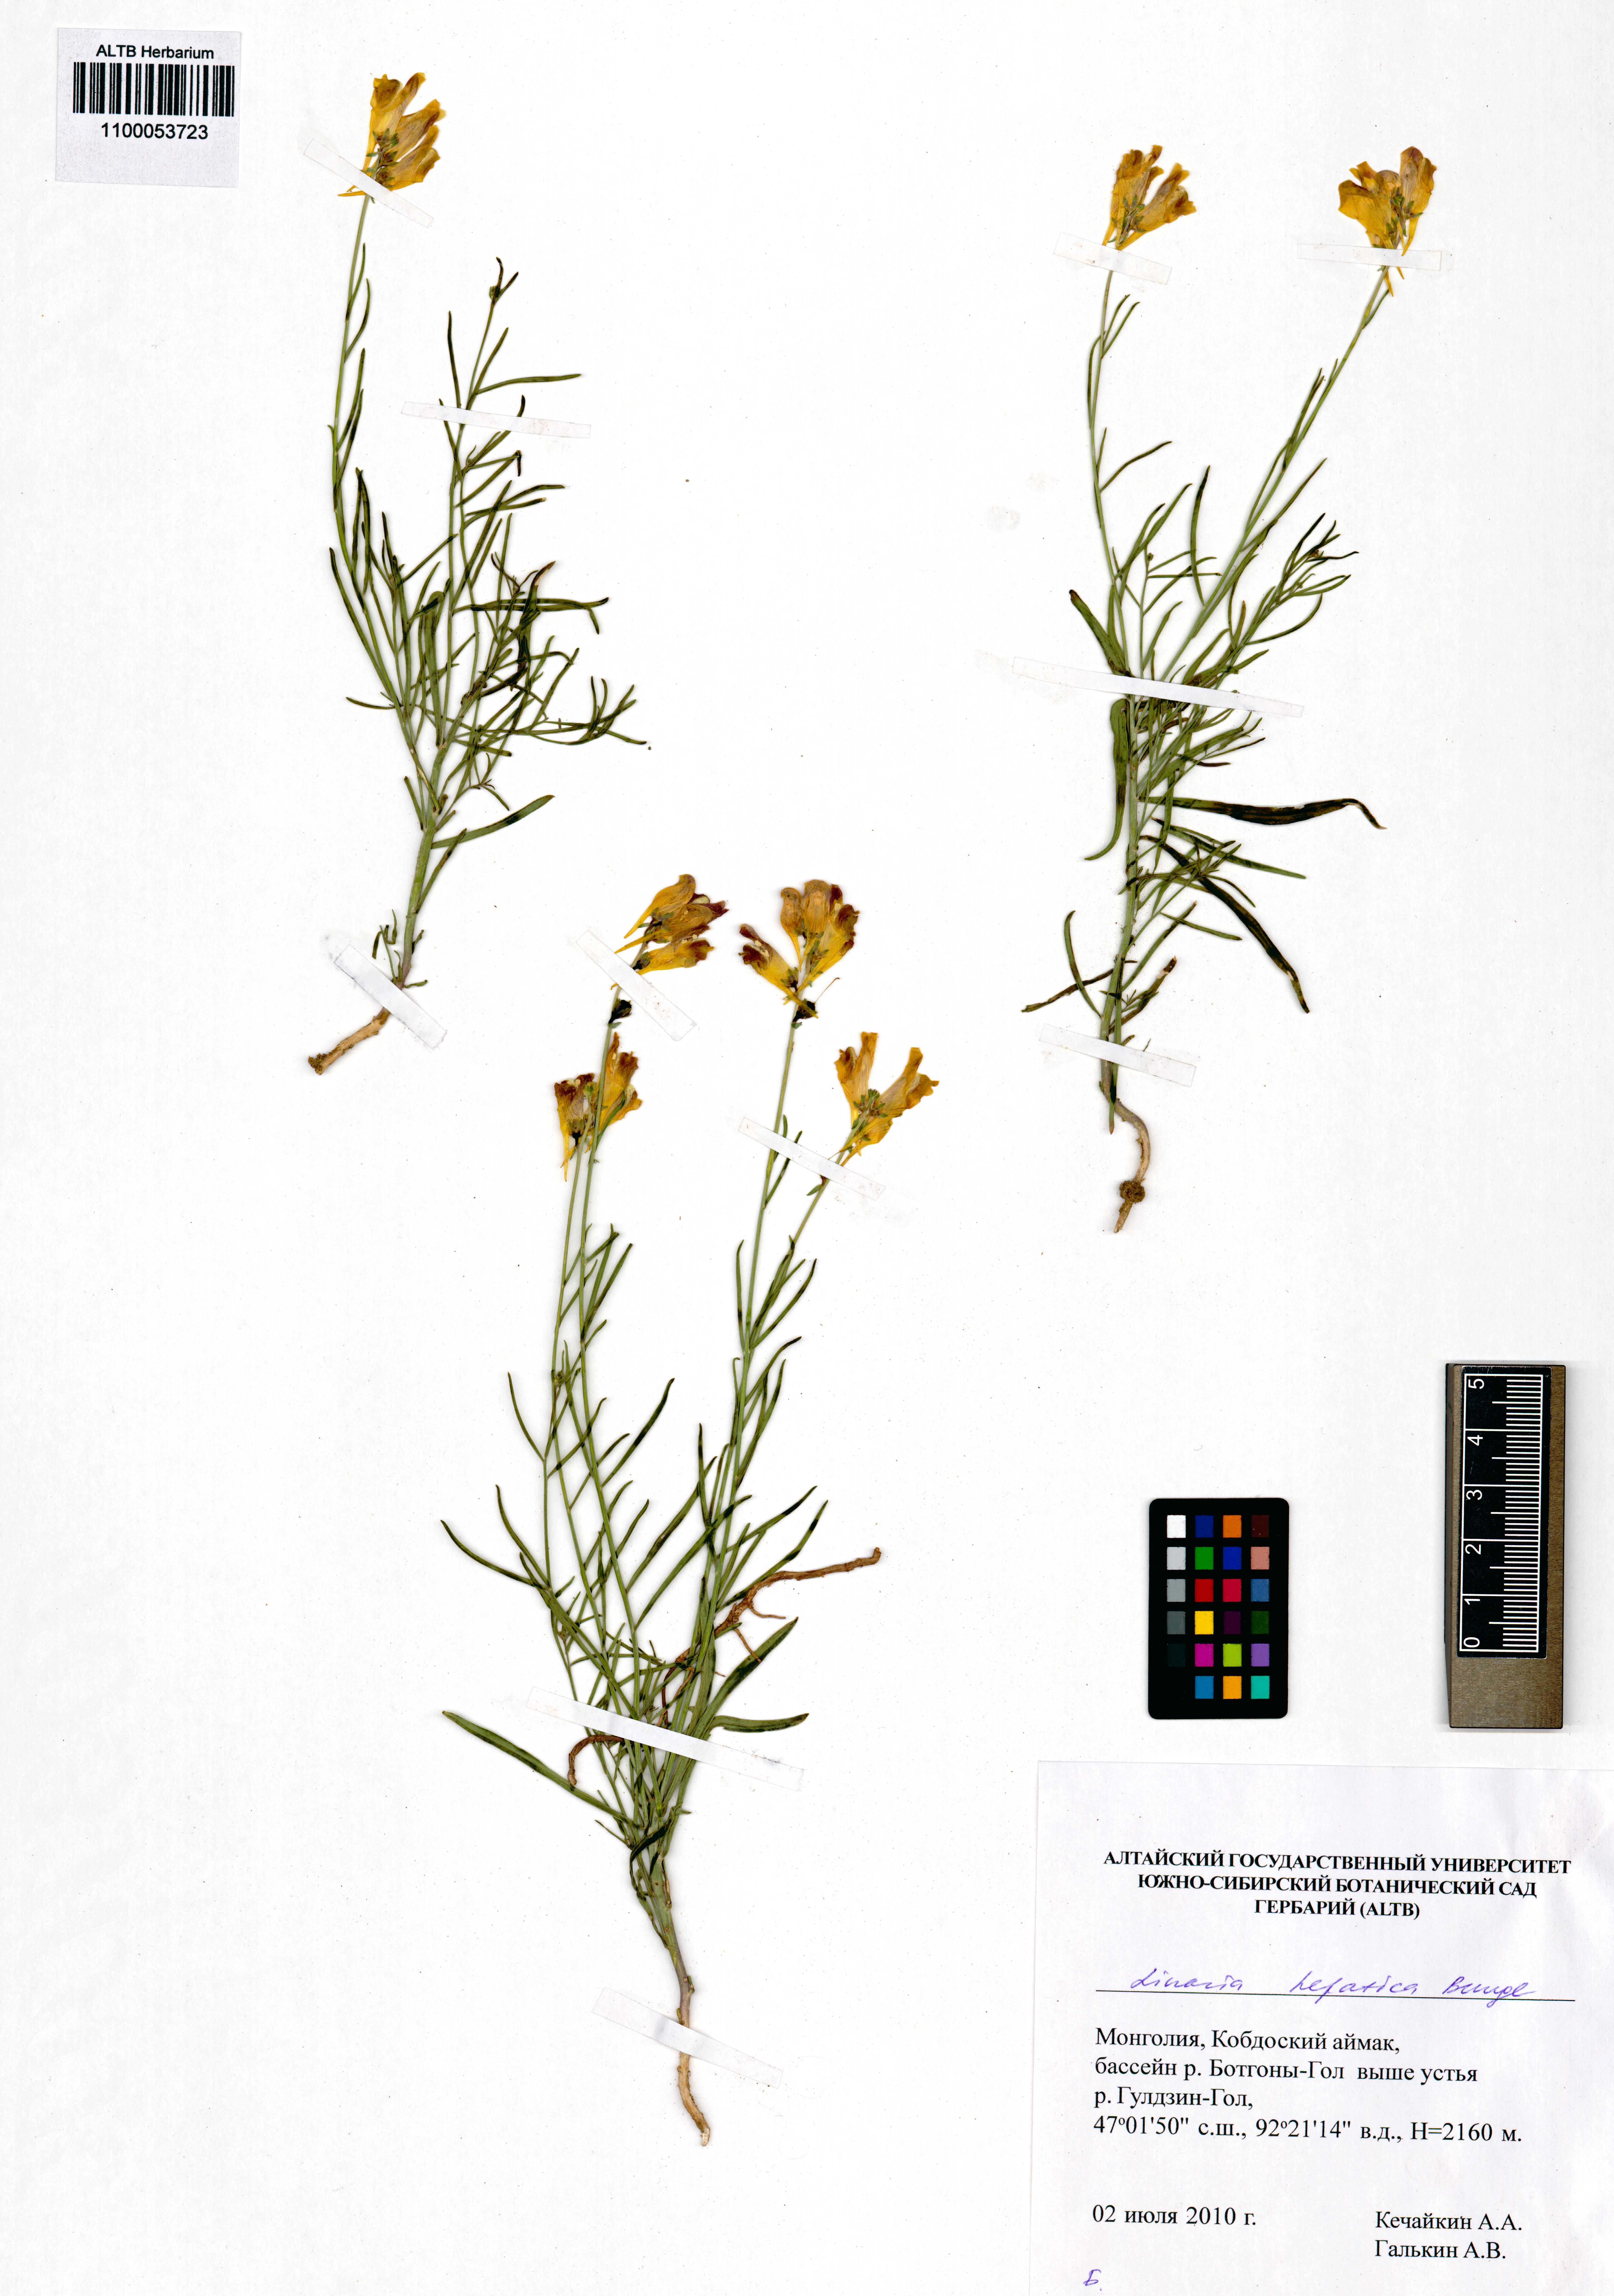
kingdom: Plantae
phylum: Tracheophyta
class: Magnoliopsida
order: Lamiales
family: Plantaginaceae
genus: Linaria
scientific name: Linaria hepatica
